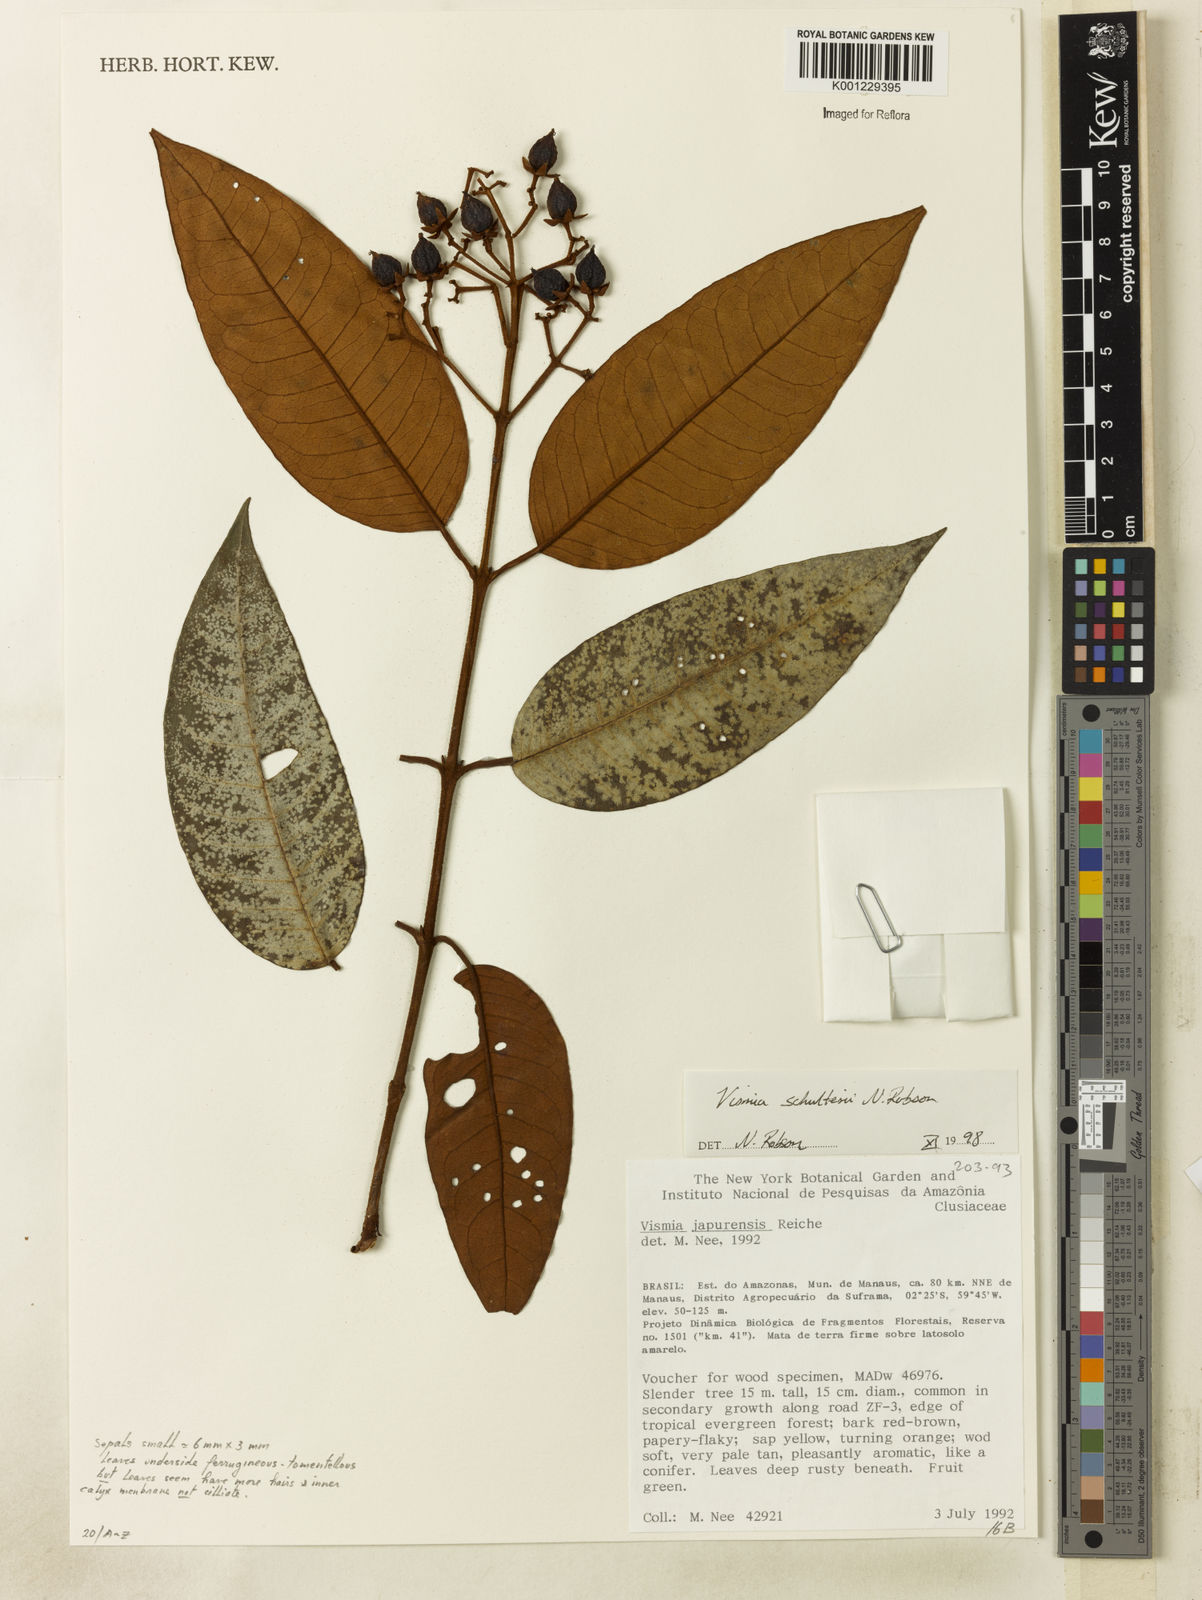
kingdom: Plantae
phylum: Tracheophyta
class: Magnoliopsida
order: Malpighiales
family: Hypericaceae
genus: Vismia
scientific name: Vismia ferruginea
